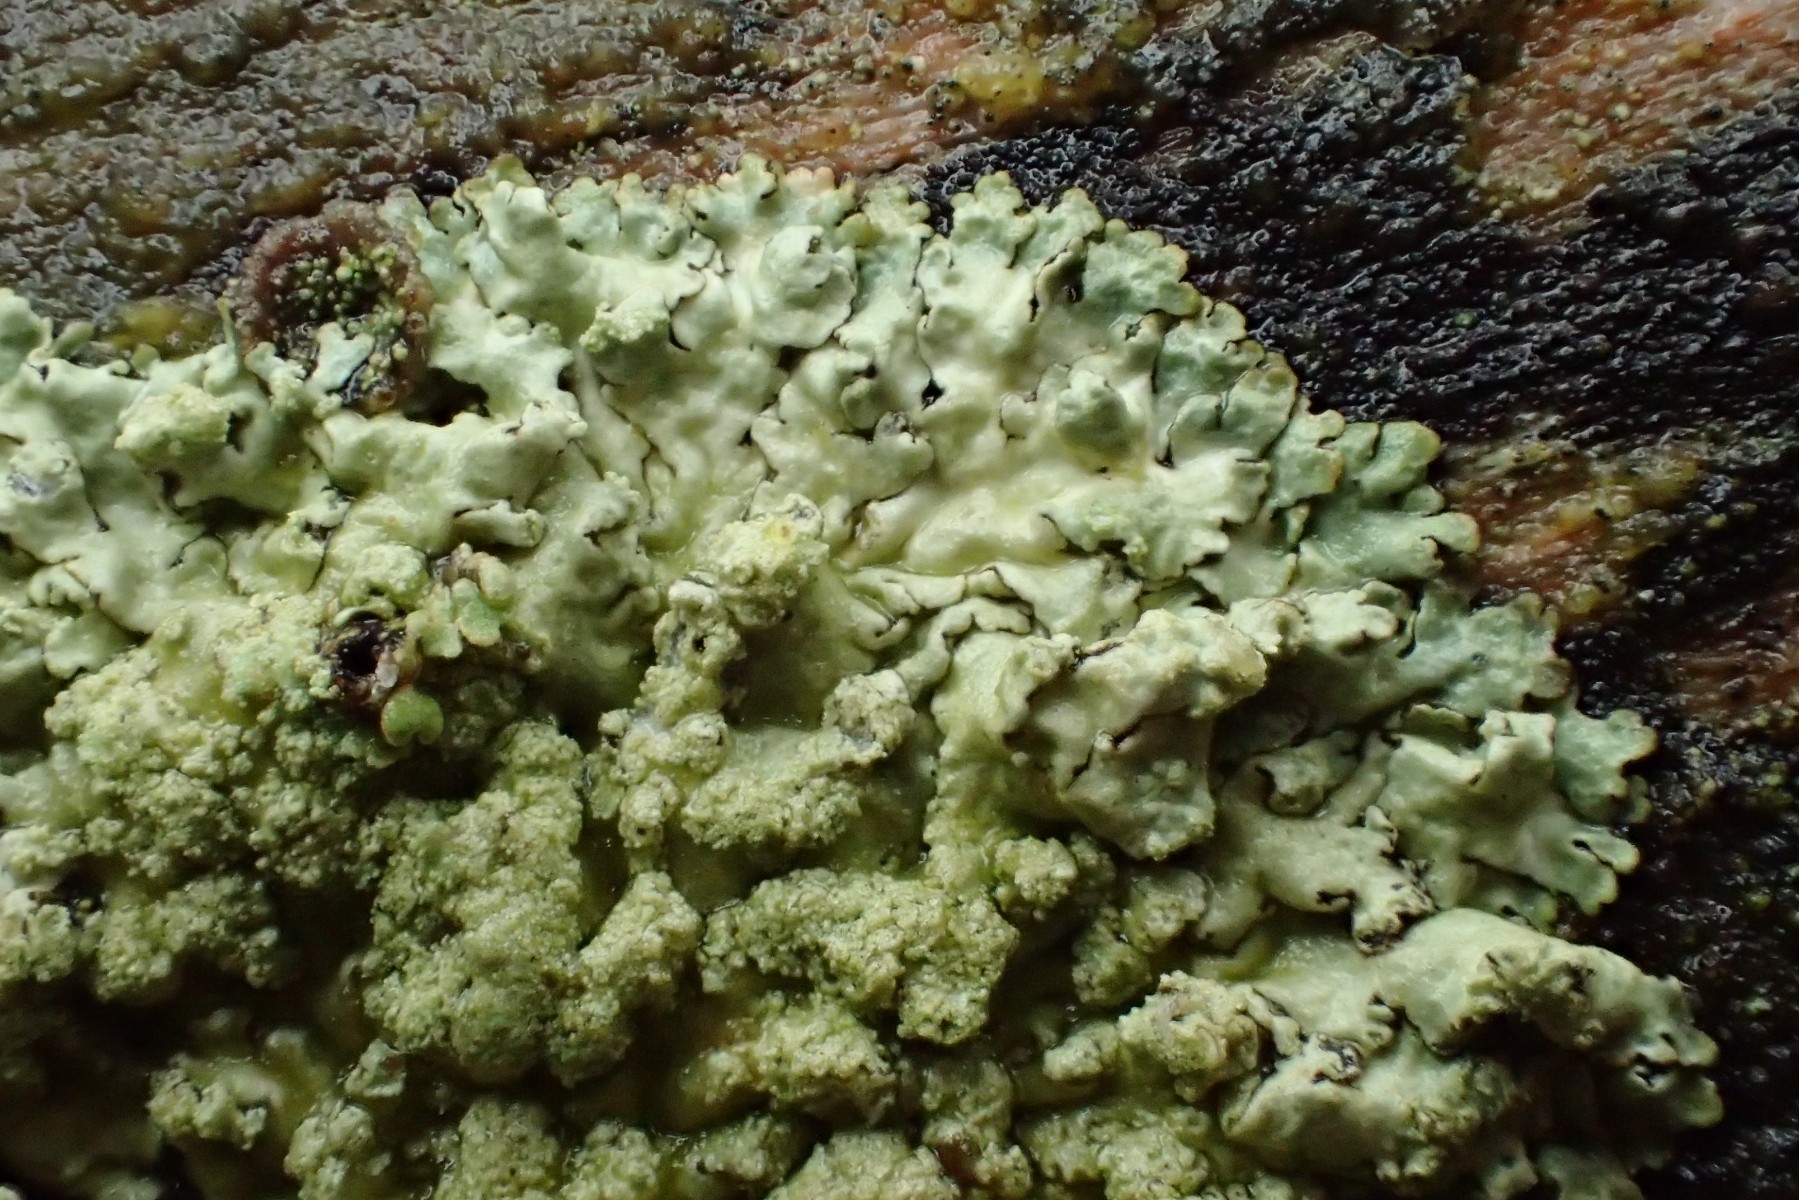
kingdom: Fungi
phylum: Ascomycota
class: Lecanoromycetes
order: Lecanorales
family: Parmeliaceae
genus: Parmeliopsis
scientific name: Parmeliopsis ambigua
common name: gul stolpelav
